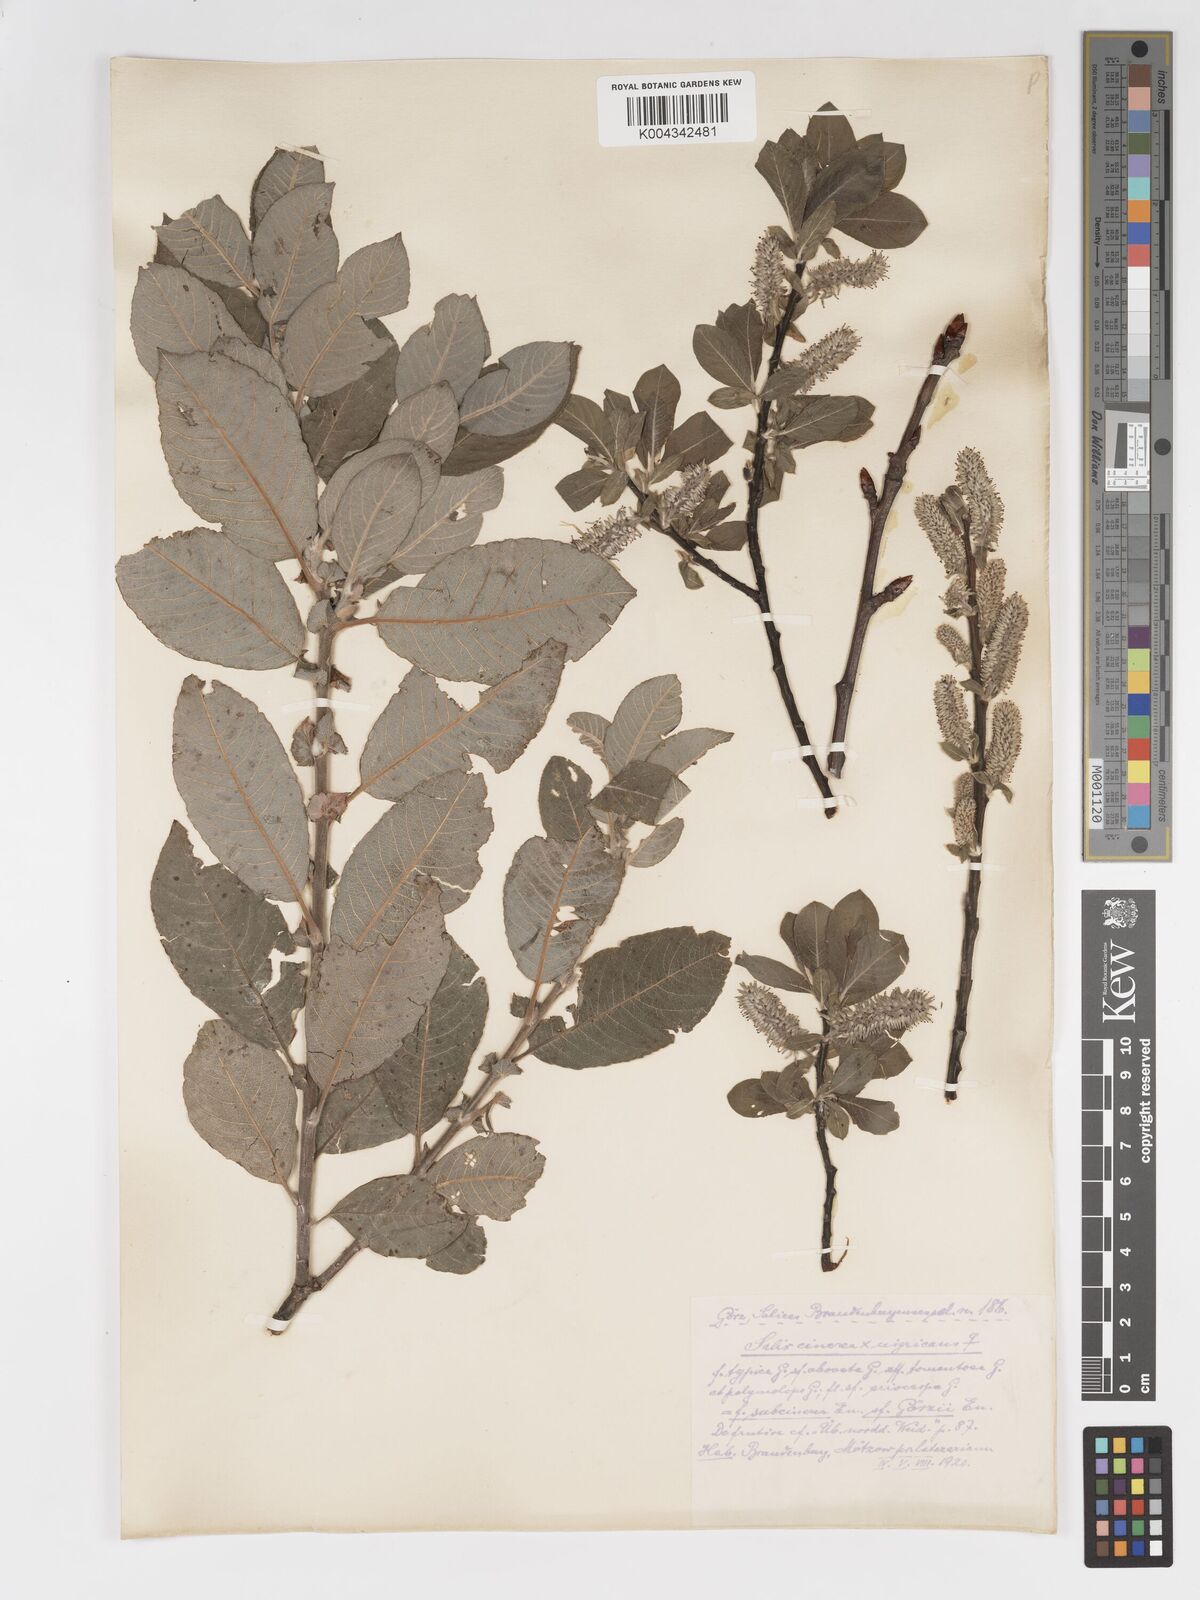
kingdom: Plantae
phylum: Tracheophyta
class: Magnoliopsida
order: Malpighiales
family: Salicaceae
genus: Salix
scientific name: Salix
